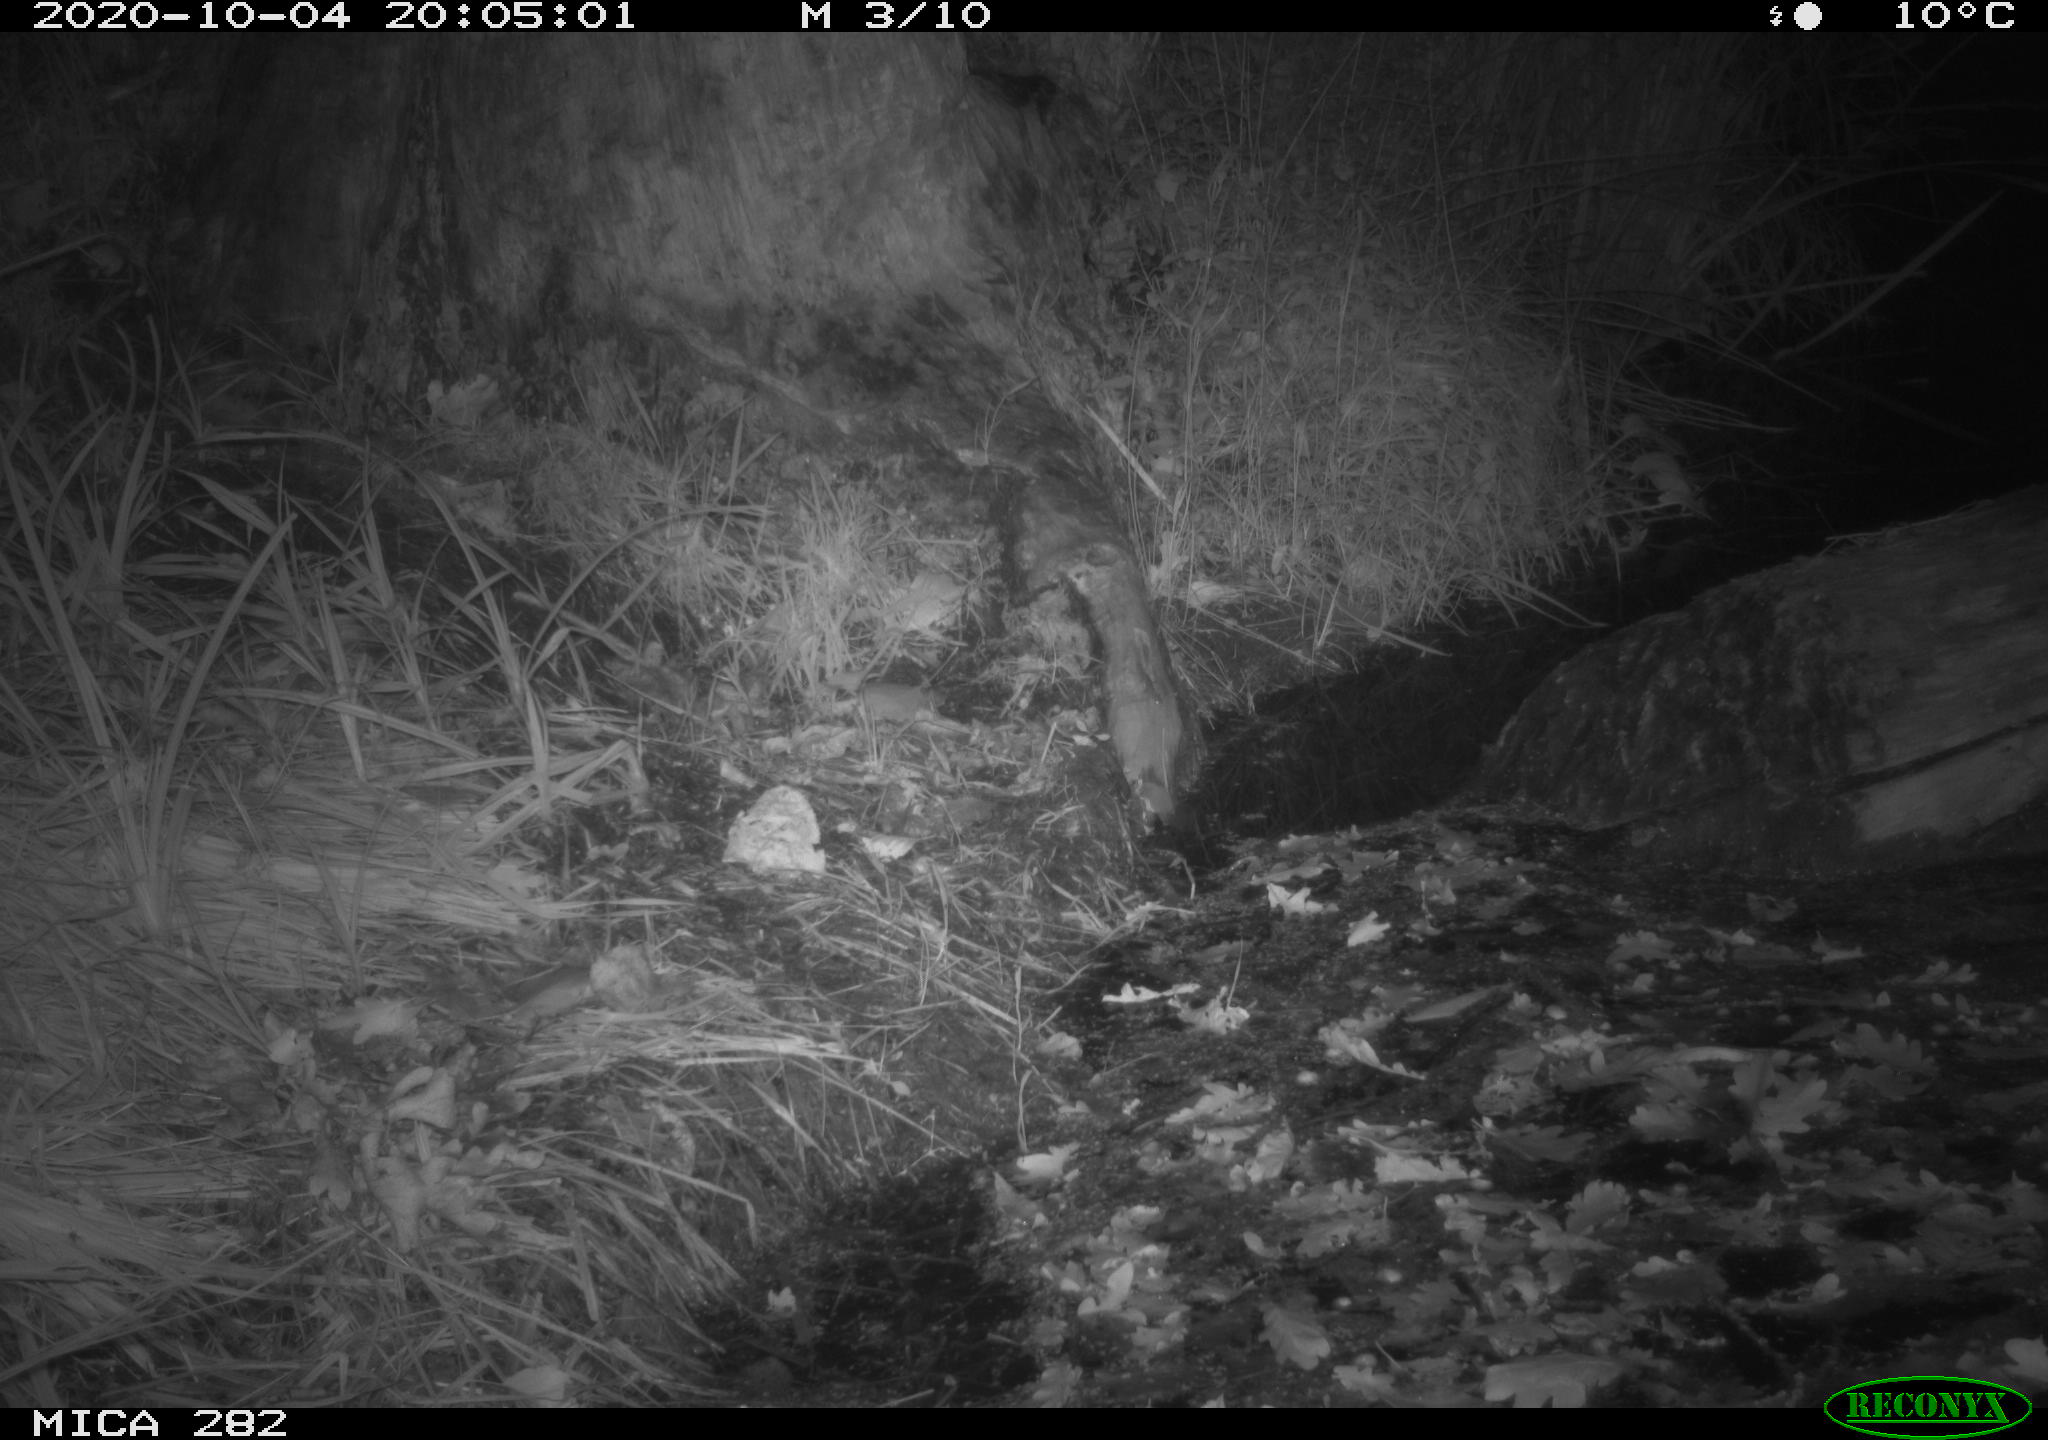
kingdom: Animalia
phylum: Chordata
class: Mammalia
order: Soricomorpha
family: Soricidae
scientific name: Soricidae
